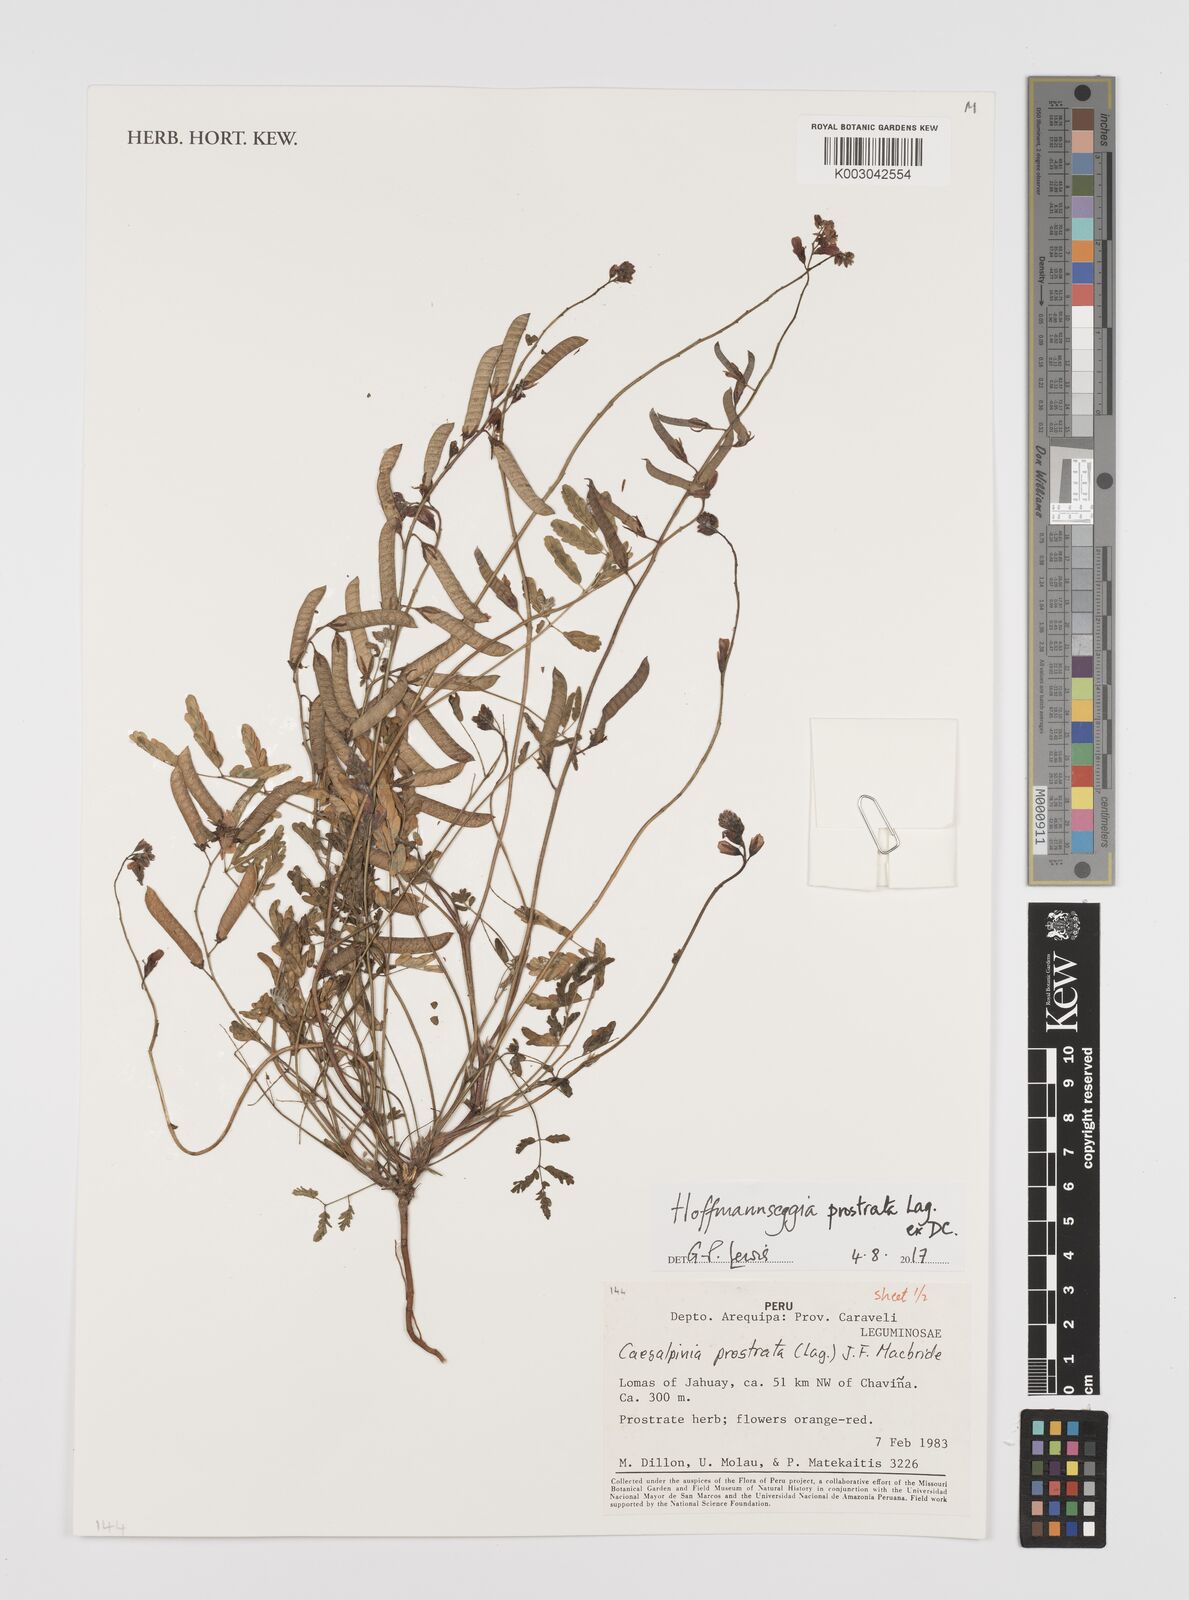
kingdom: Plantae
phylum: Tracheophyta
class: Magnoliopsida
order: Fabales
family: Fabaceae
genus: Hoffmannseggia
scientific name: Hoffmannseggia prostrata
